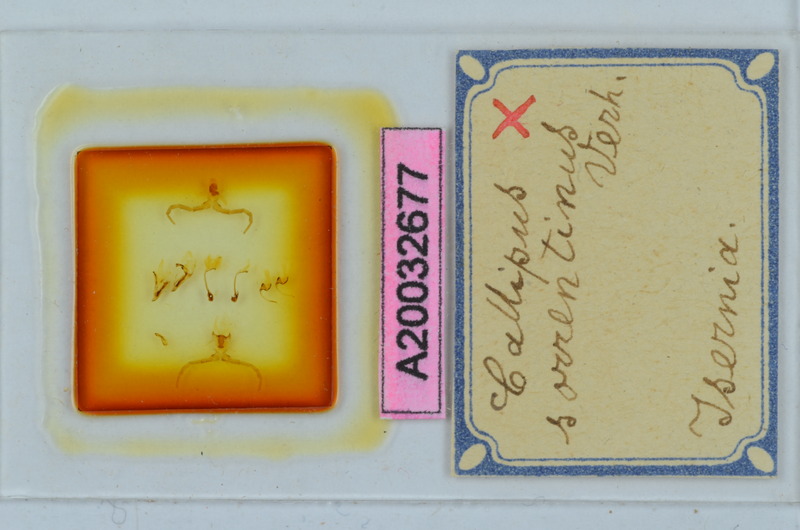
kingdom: Animalia
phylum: Arthropoda
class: Diplopoda
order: Callipodida
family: Callipodidae
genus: Callipus
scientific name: Callipus foetidissimus
